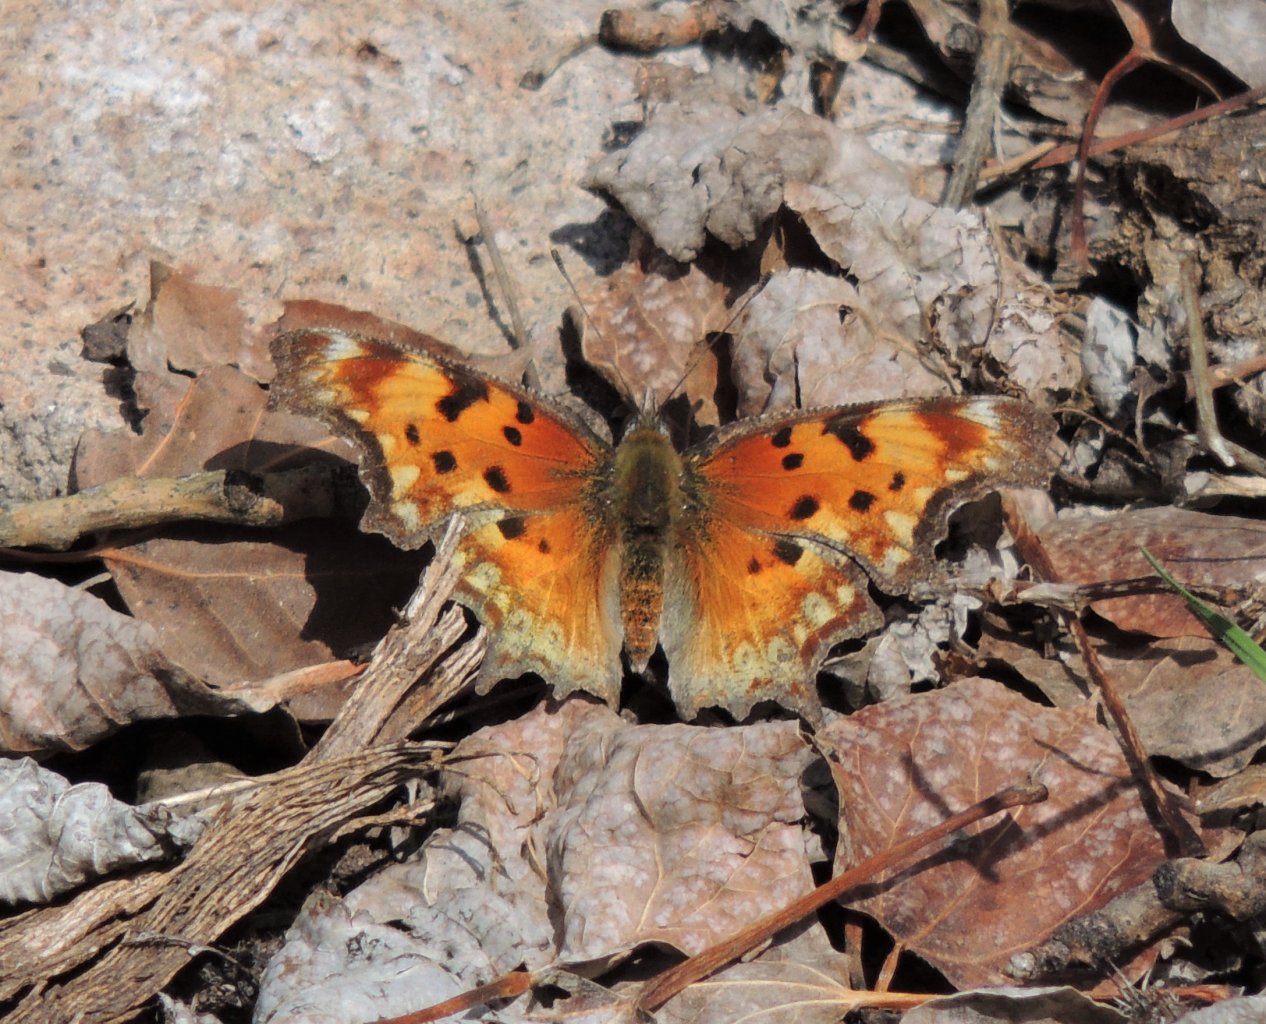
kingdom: Animalia
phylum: Arthropoda
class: Insecta
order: Lepidoptera
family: Nymphalidae
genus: Polygonia
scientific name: Polygonia gracilis
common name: Hoary Comma
